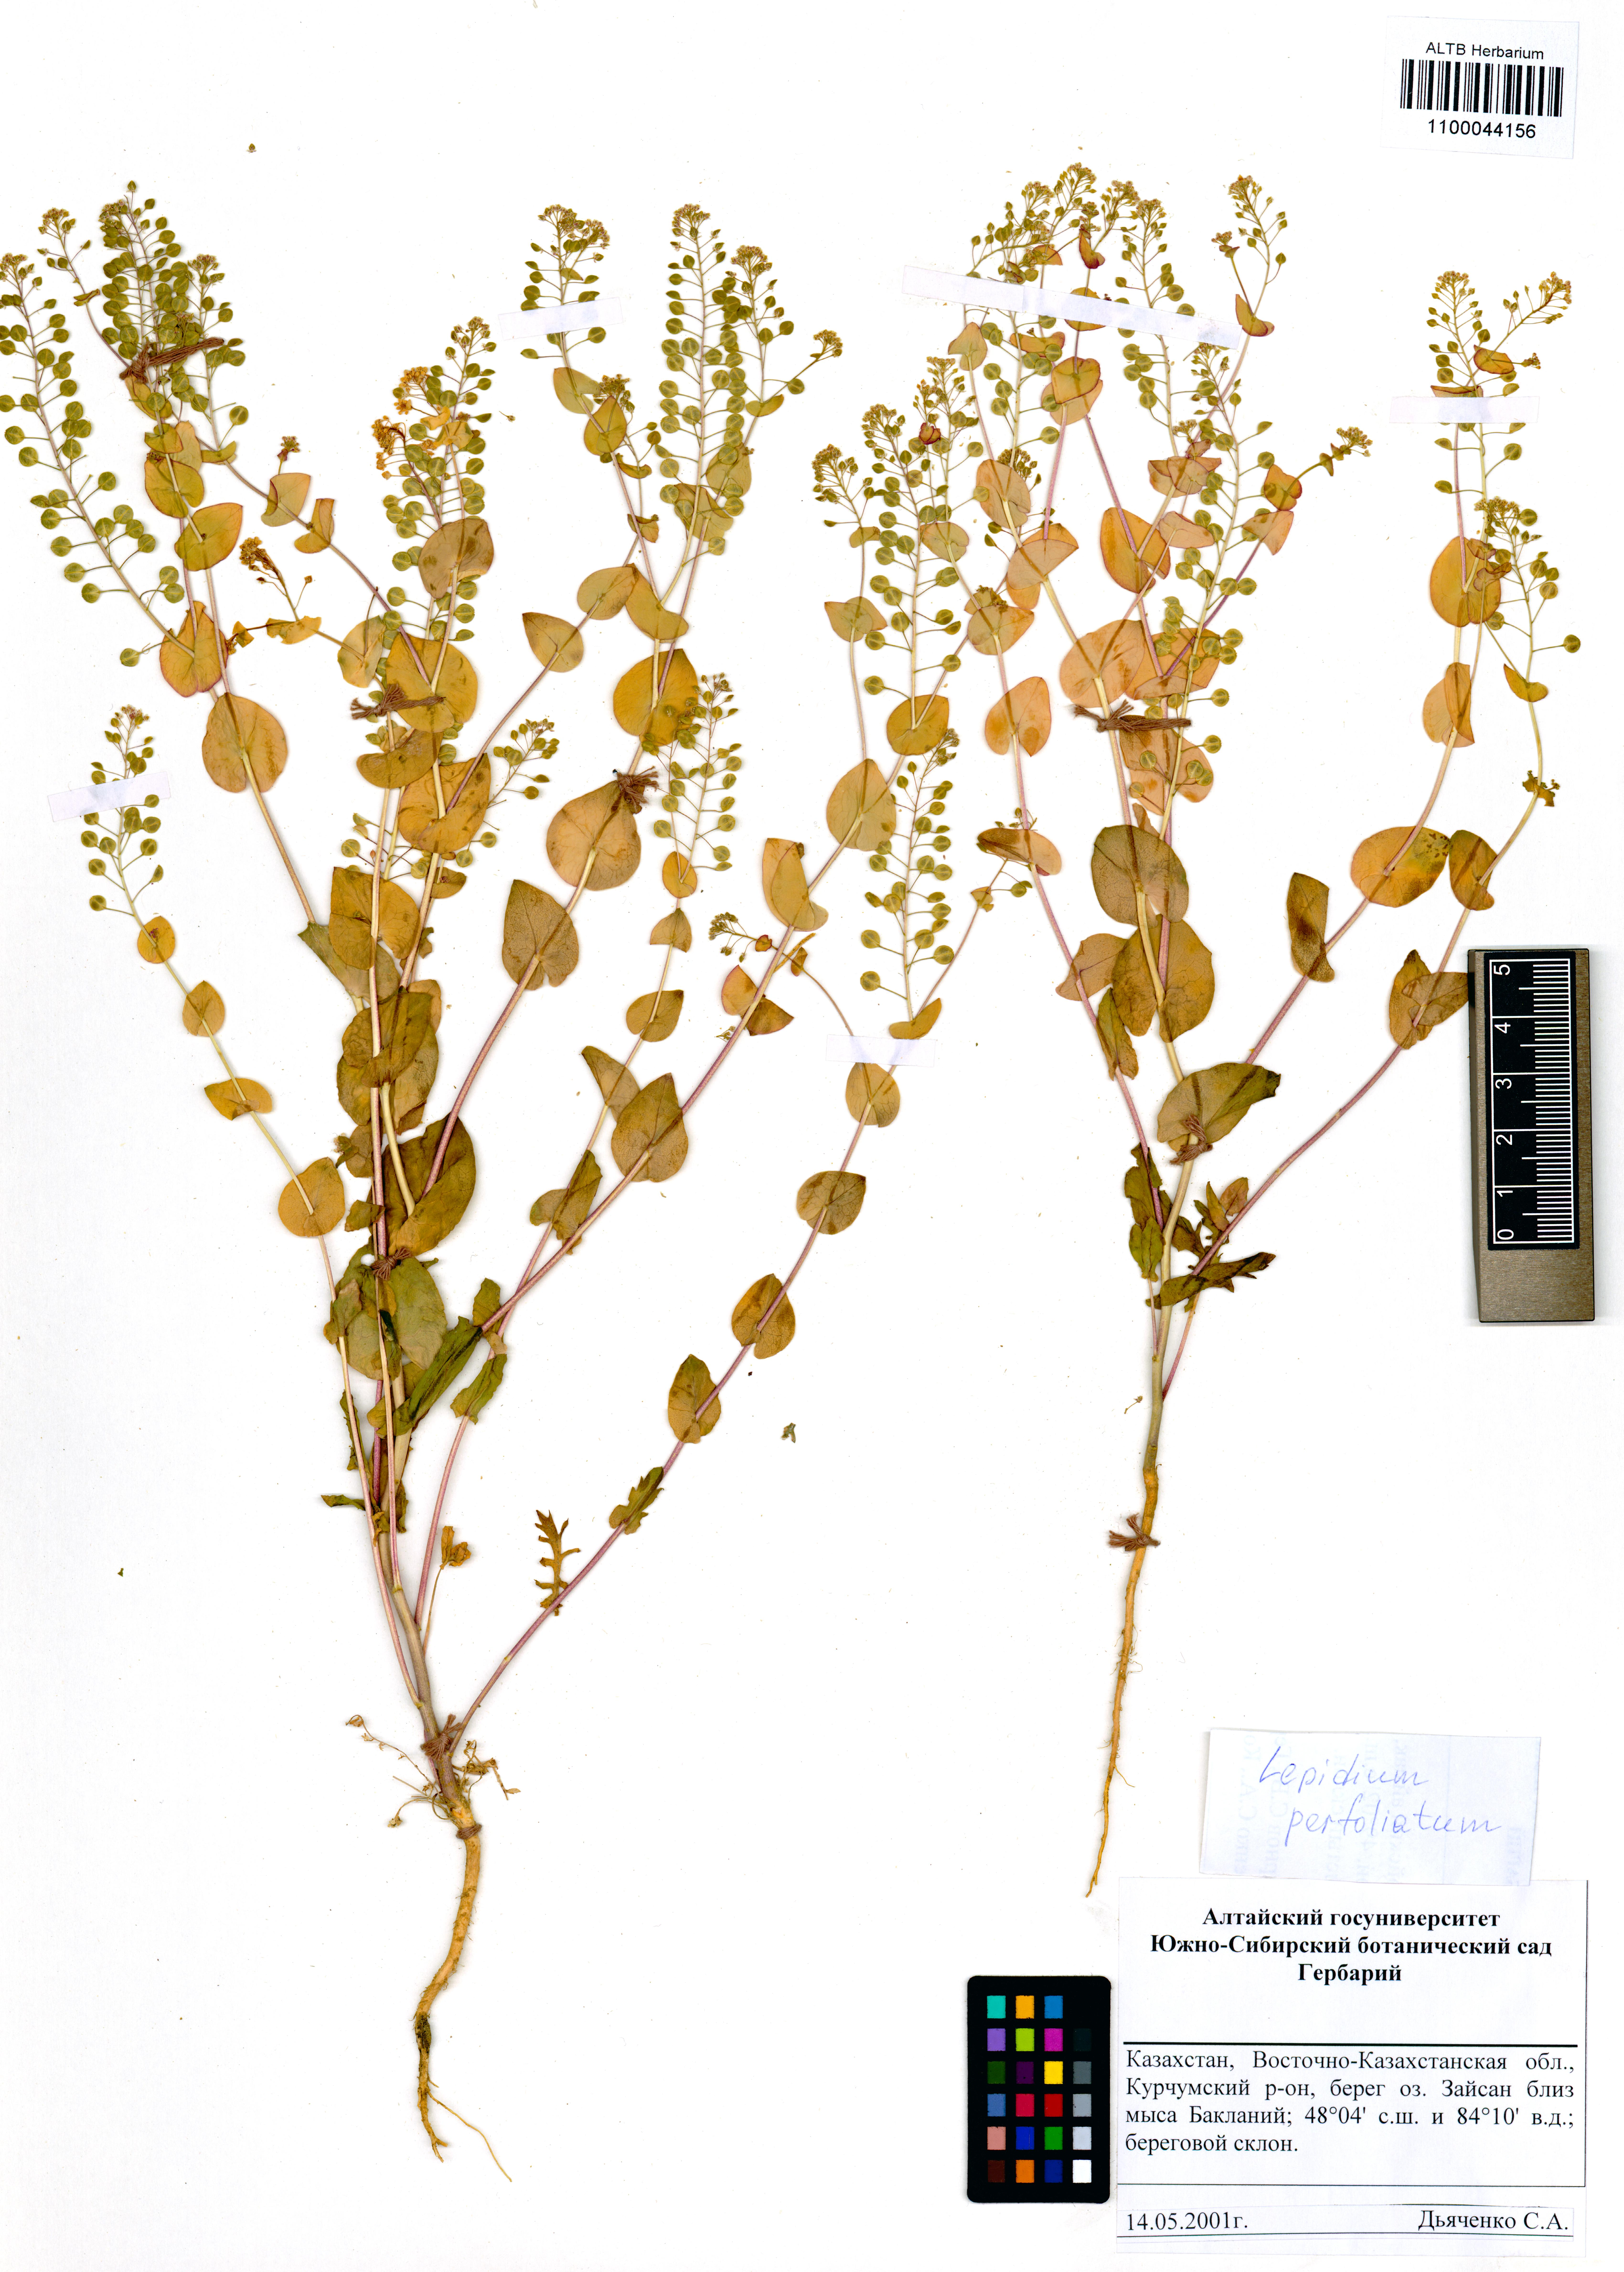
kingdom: Plantae
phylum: Tracheophyta
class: Magnoliopsida
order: Brassicales
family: Brassicaceae
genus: Lepidium
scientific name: Lepidium perfoliatum
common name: Perfoliate pepperwort
